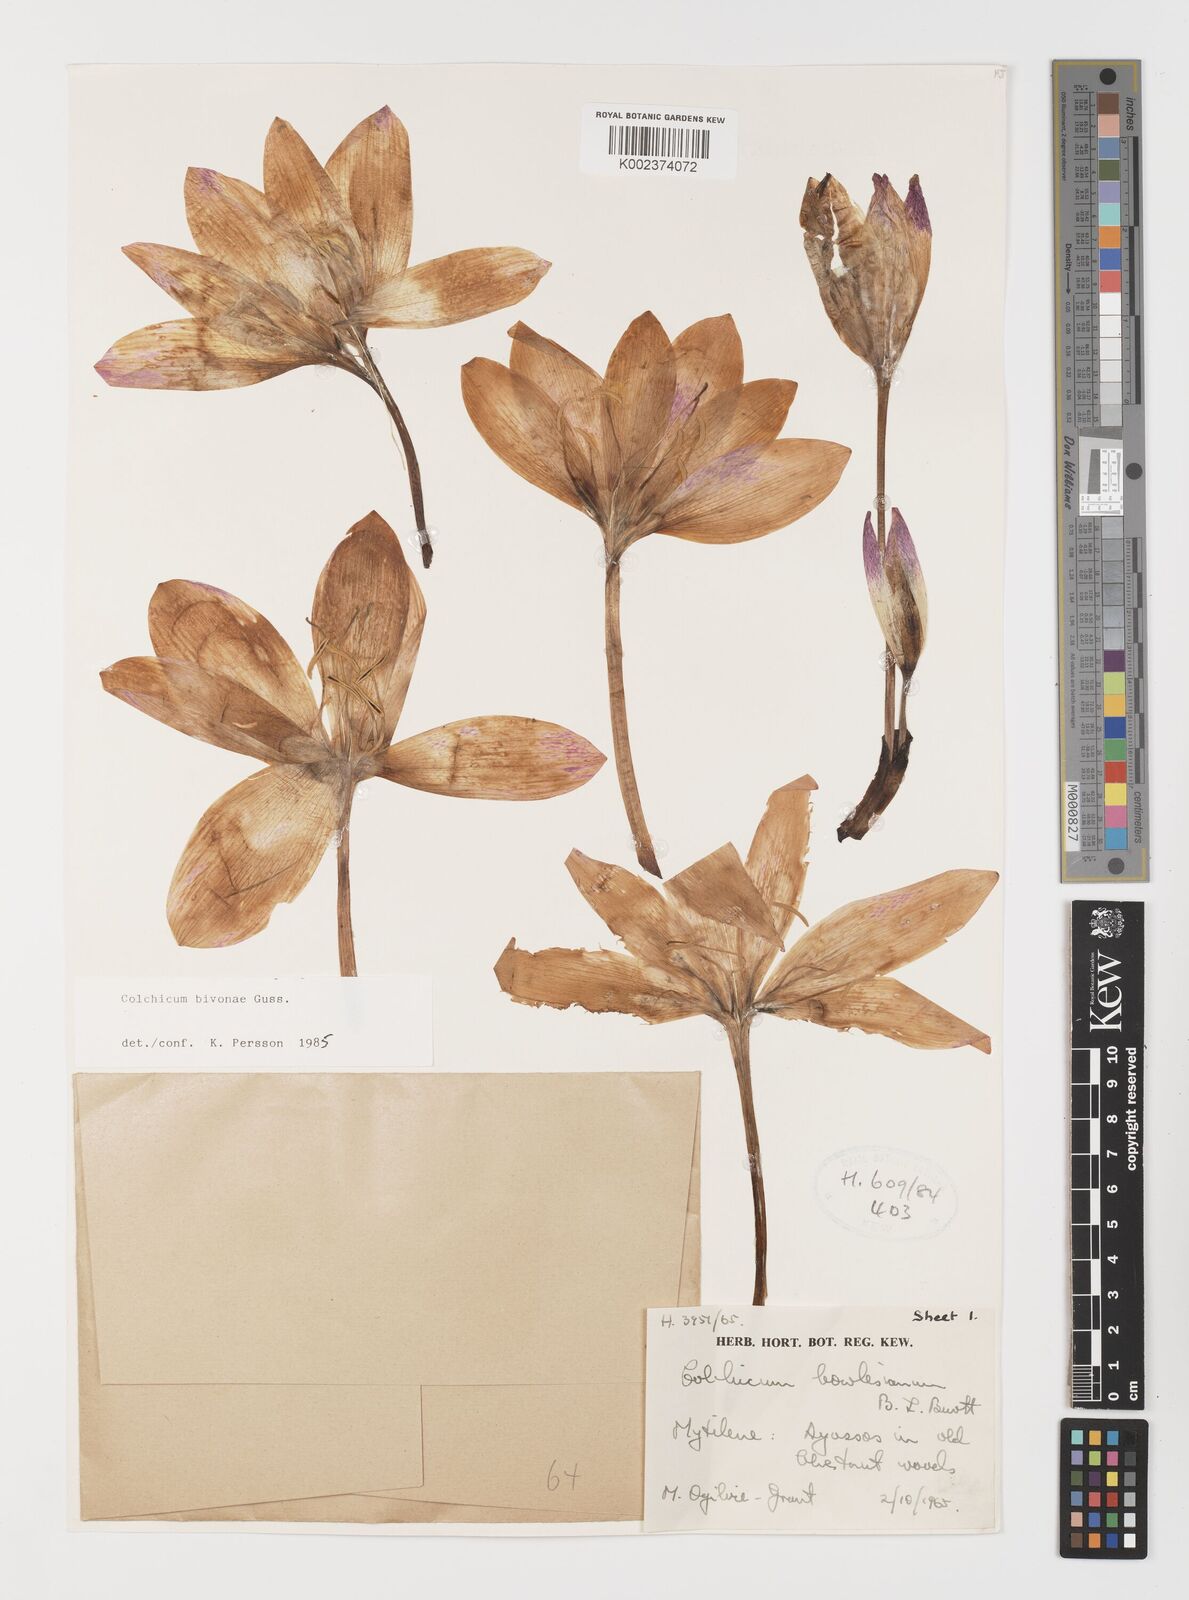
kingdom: Plantae
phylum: Tracheophyta
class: Liliopsida
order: Liliales
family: Colchicaceae
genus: Colchicum
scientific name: Colchicum bivonae
